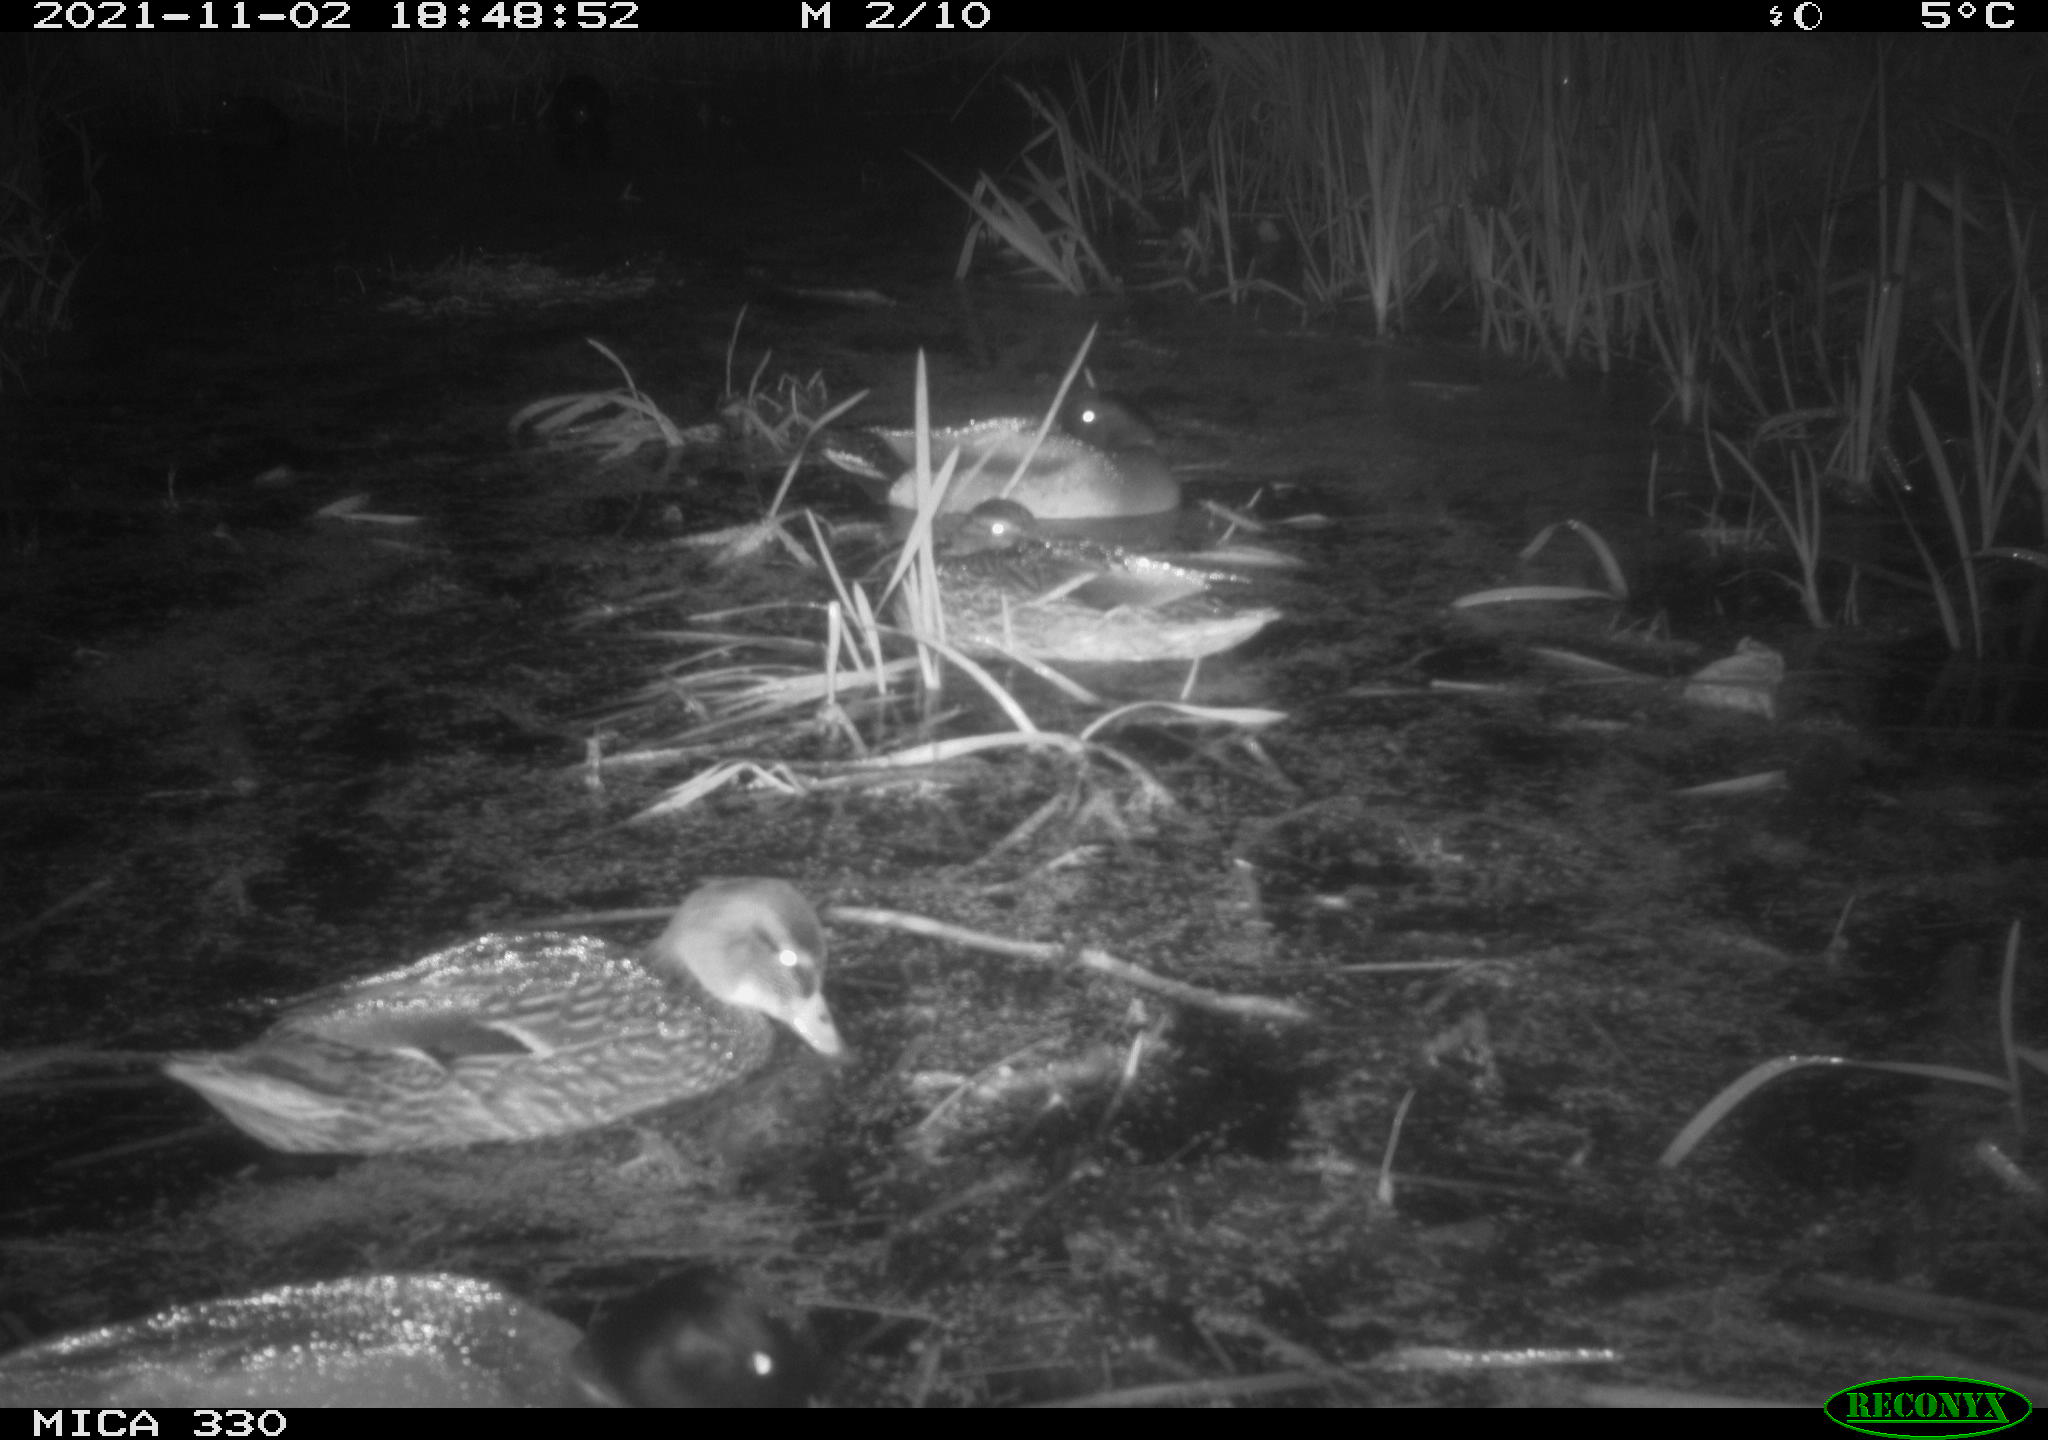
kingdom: Animalia
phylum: Chordata
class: Aves
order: Anseriformes
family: Anatidae
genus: Anas
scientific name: Anas platyrhynchos
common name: Mallard
